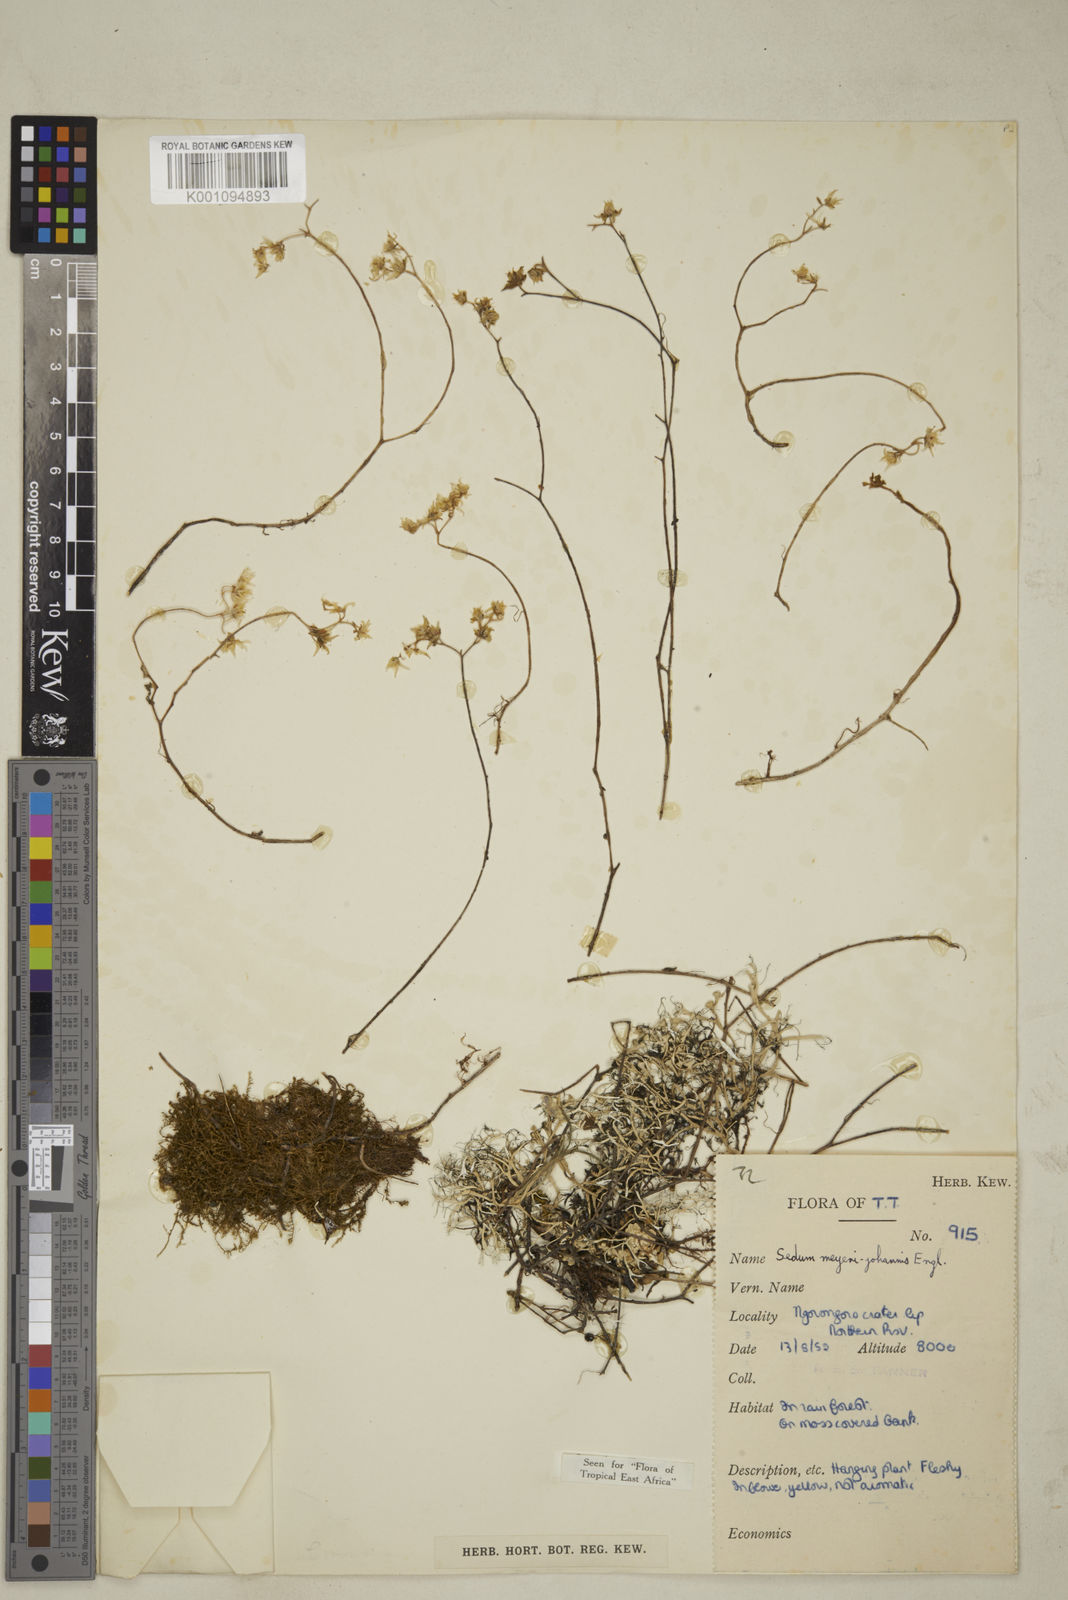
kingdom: Plantae
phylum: Tracheophyta
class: Magnoliopsida
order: Saxifragales
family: Crassulaceae
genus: Sedum
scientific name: Sedum meyeri-johannis
